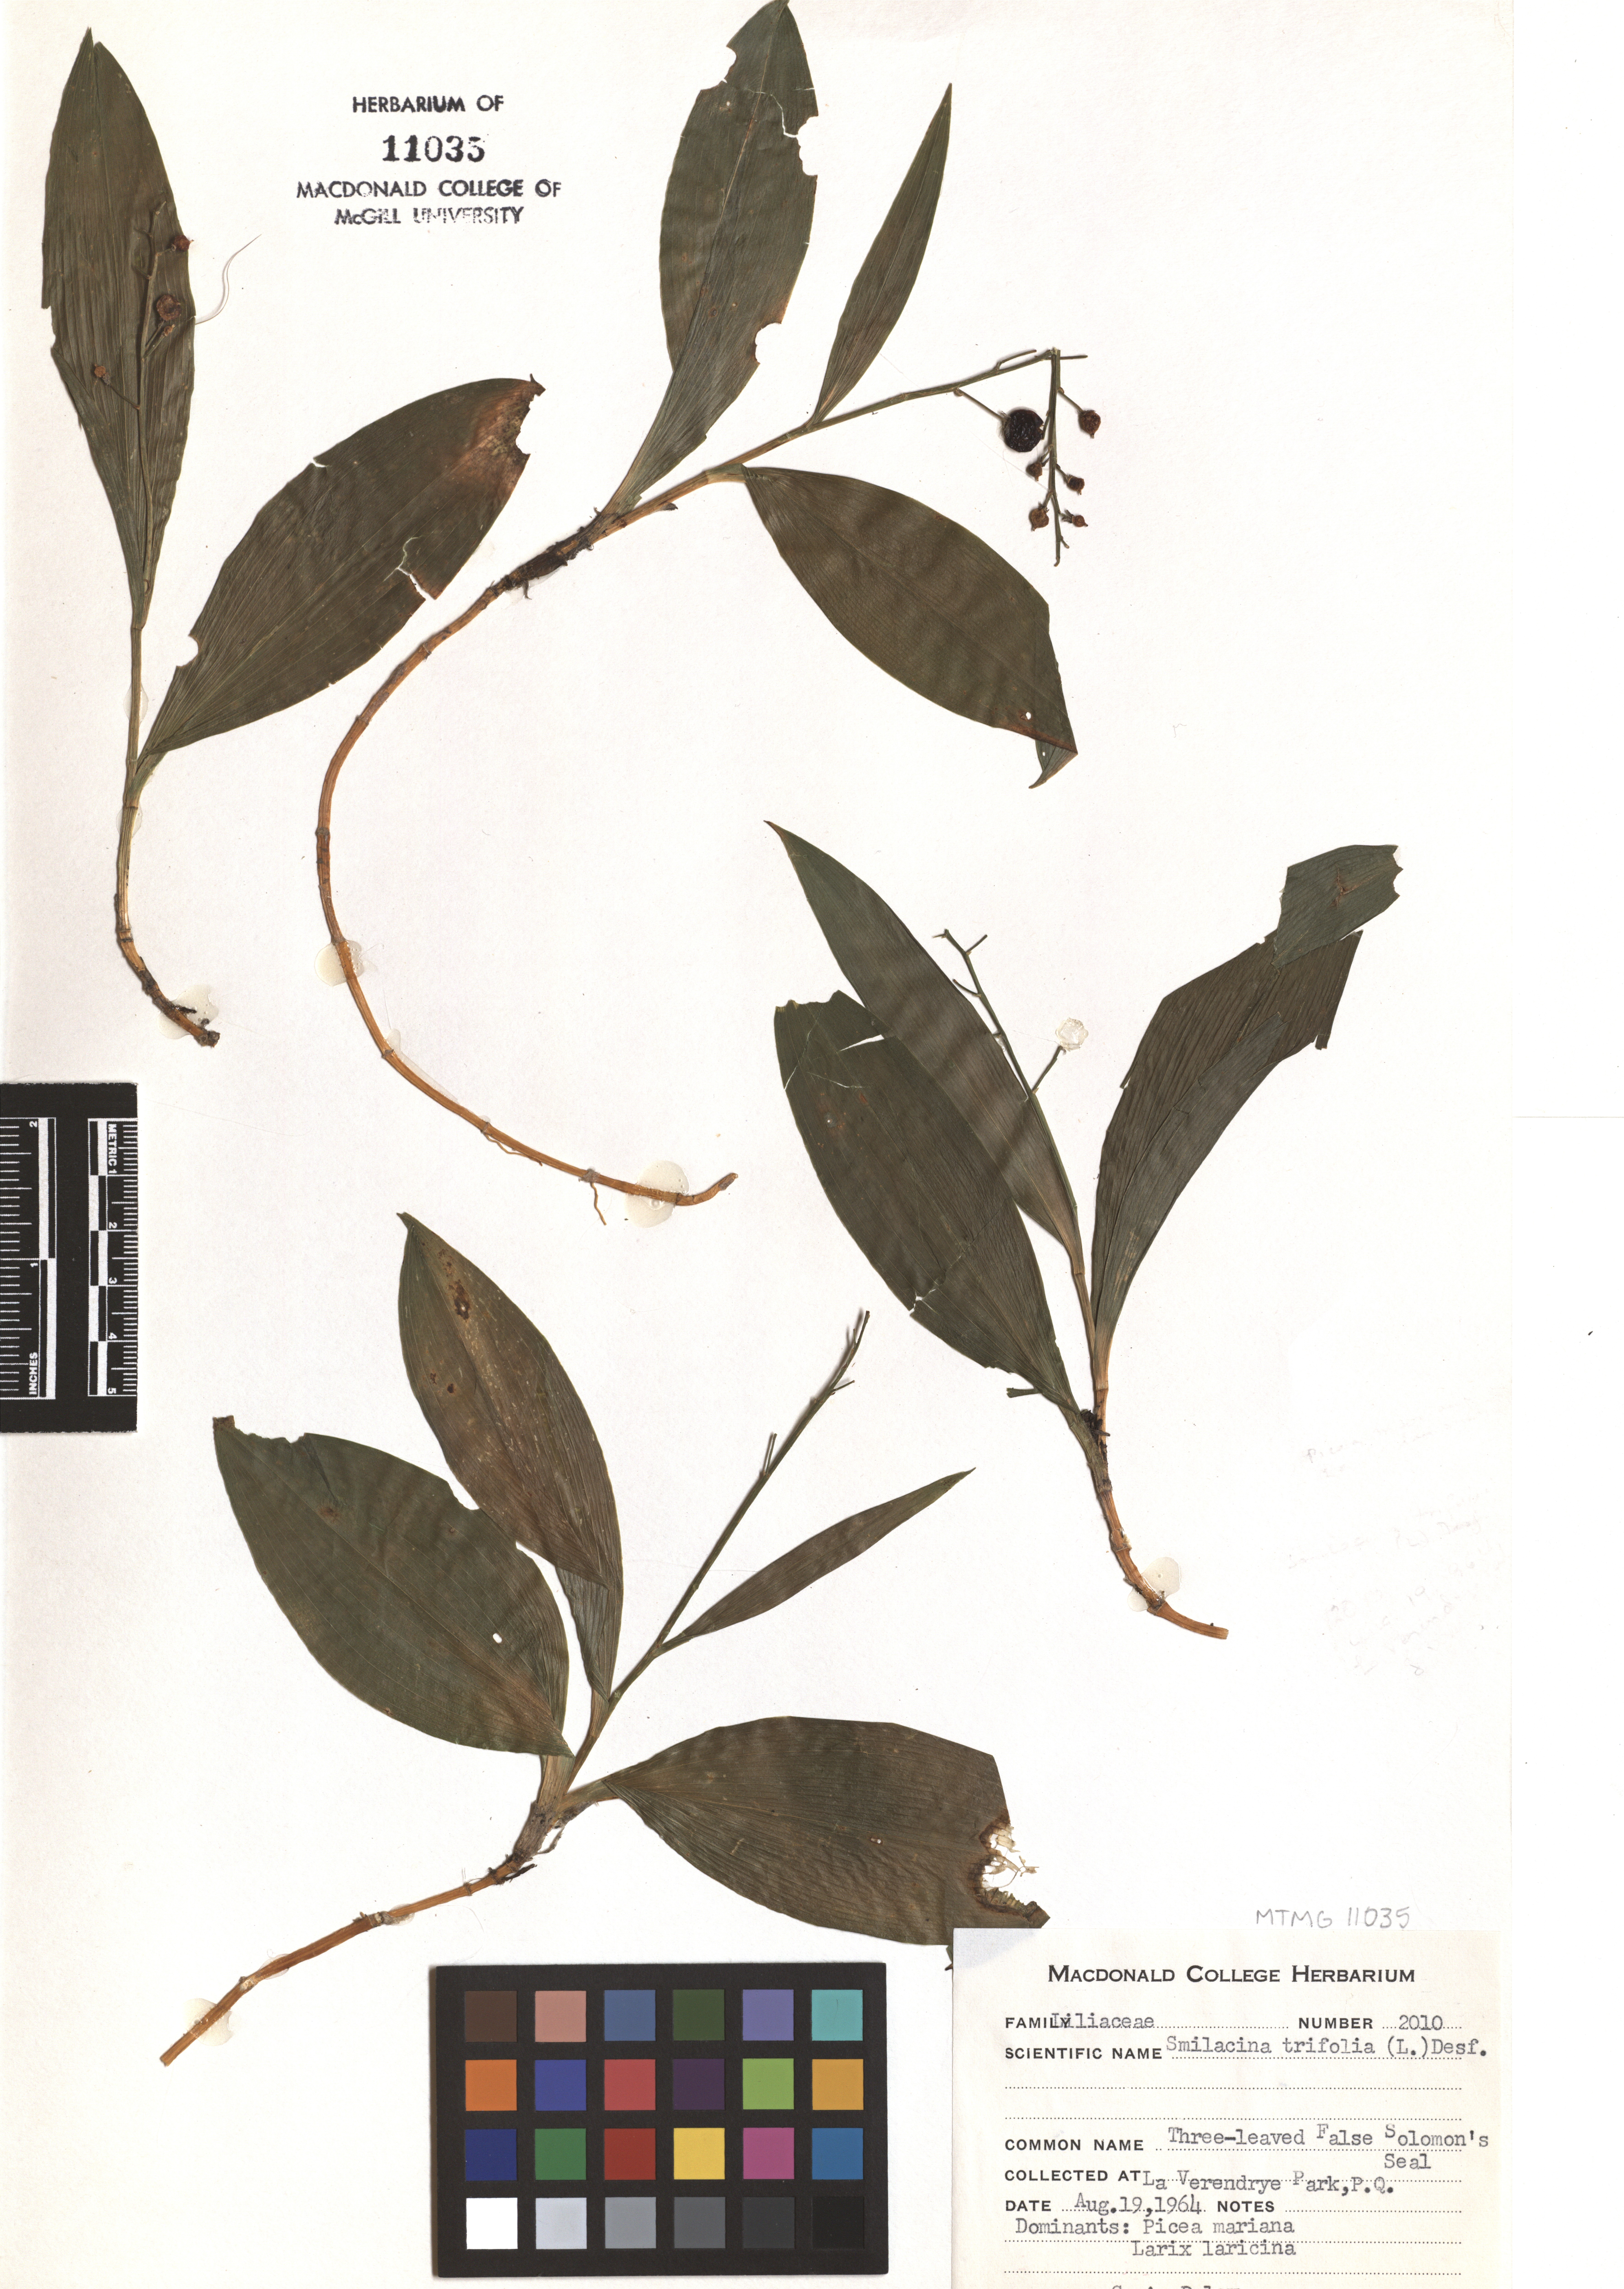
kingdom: Plantae
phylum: Tracheophyta
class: Liliopsida
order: Asparagales
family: Asparagaceae
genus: Maianthemum
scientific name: Maianthemum trifolium
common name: Swamp false solomon's seal
